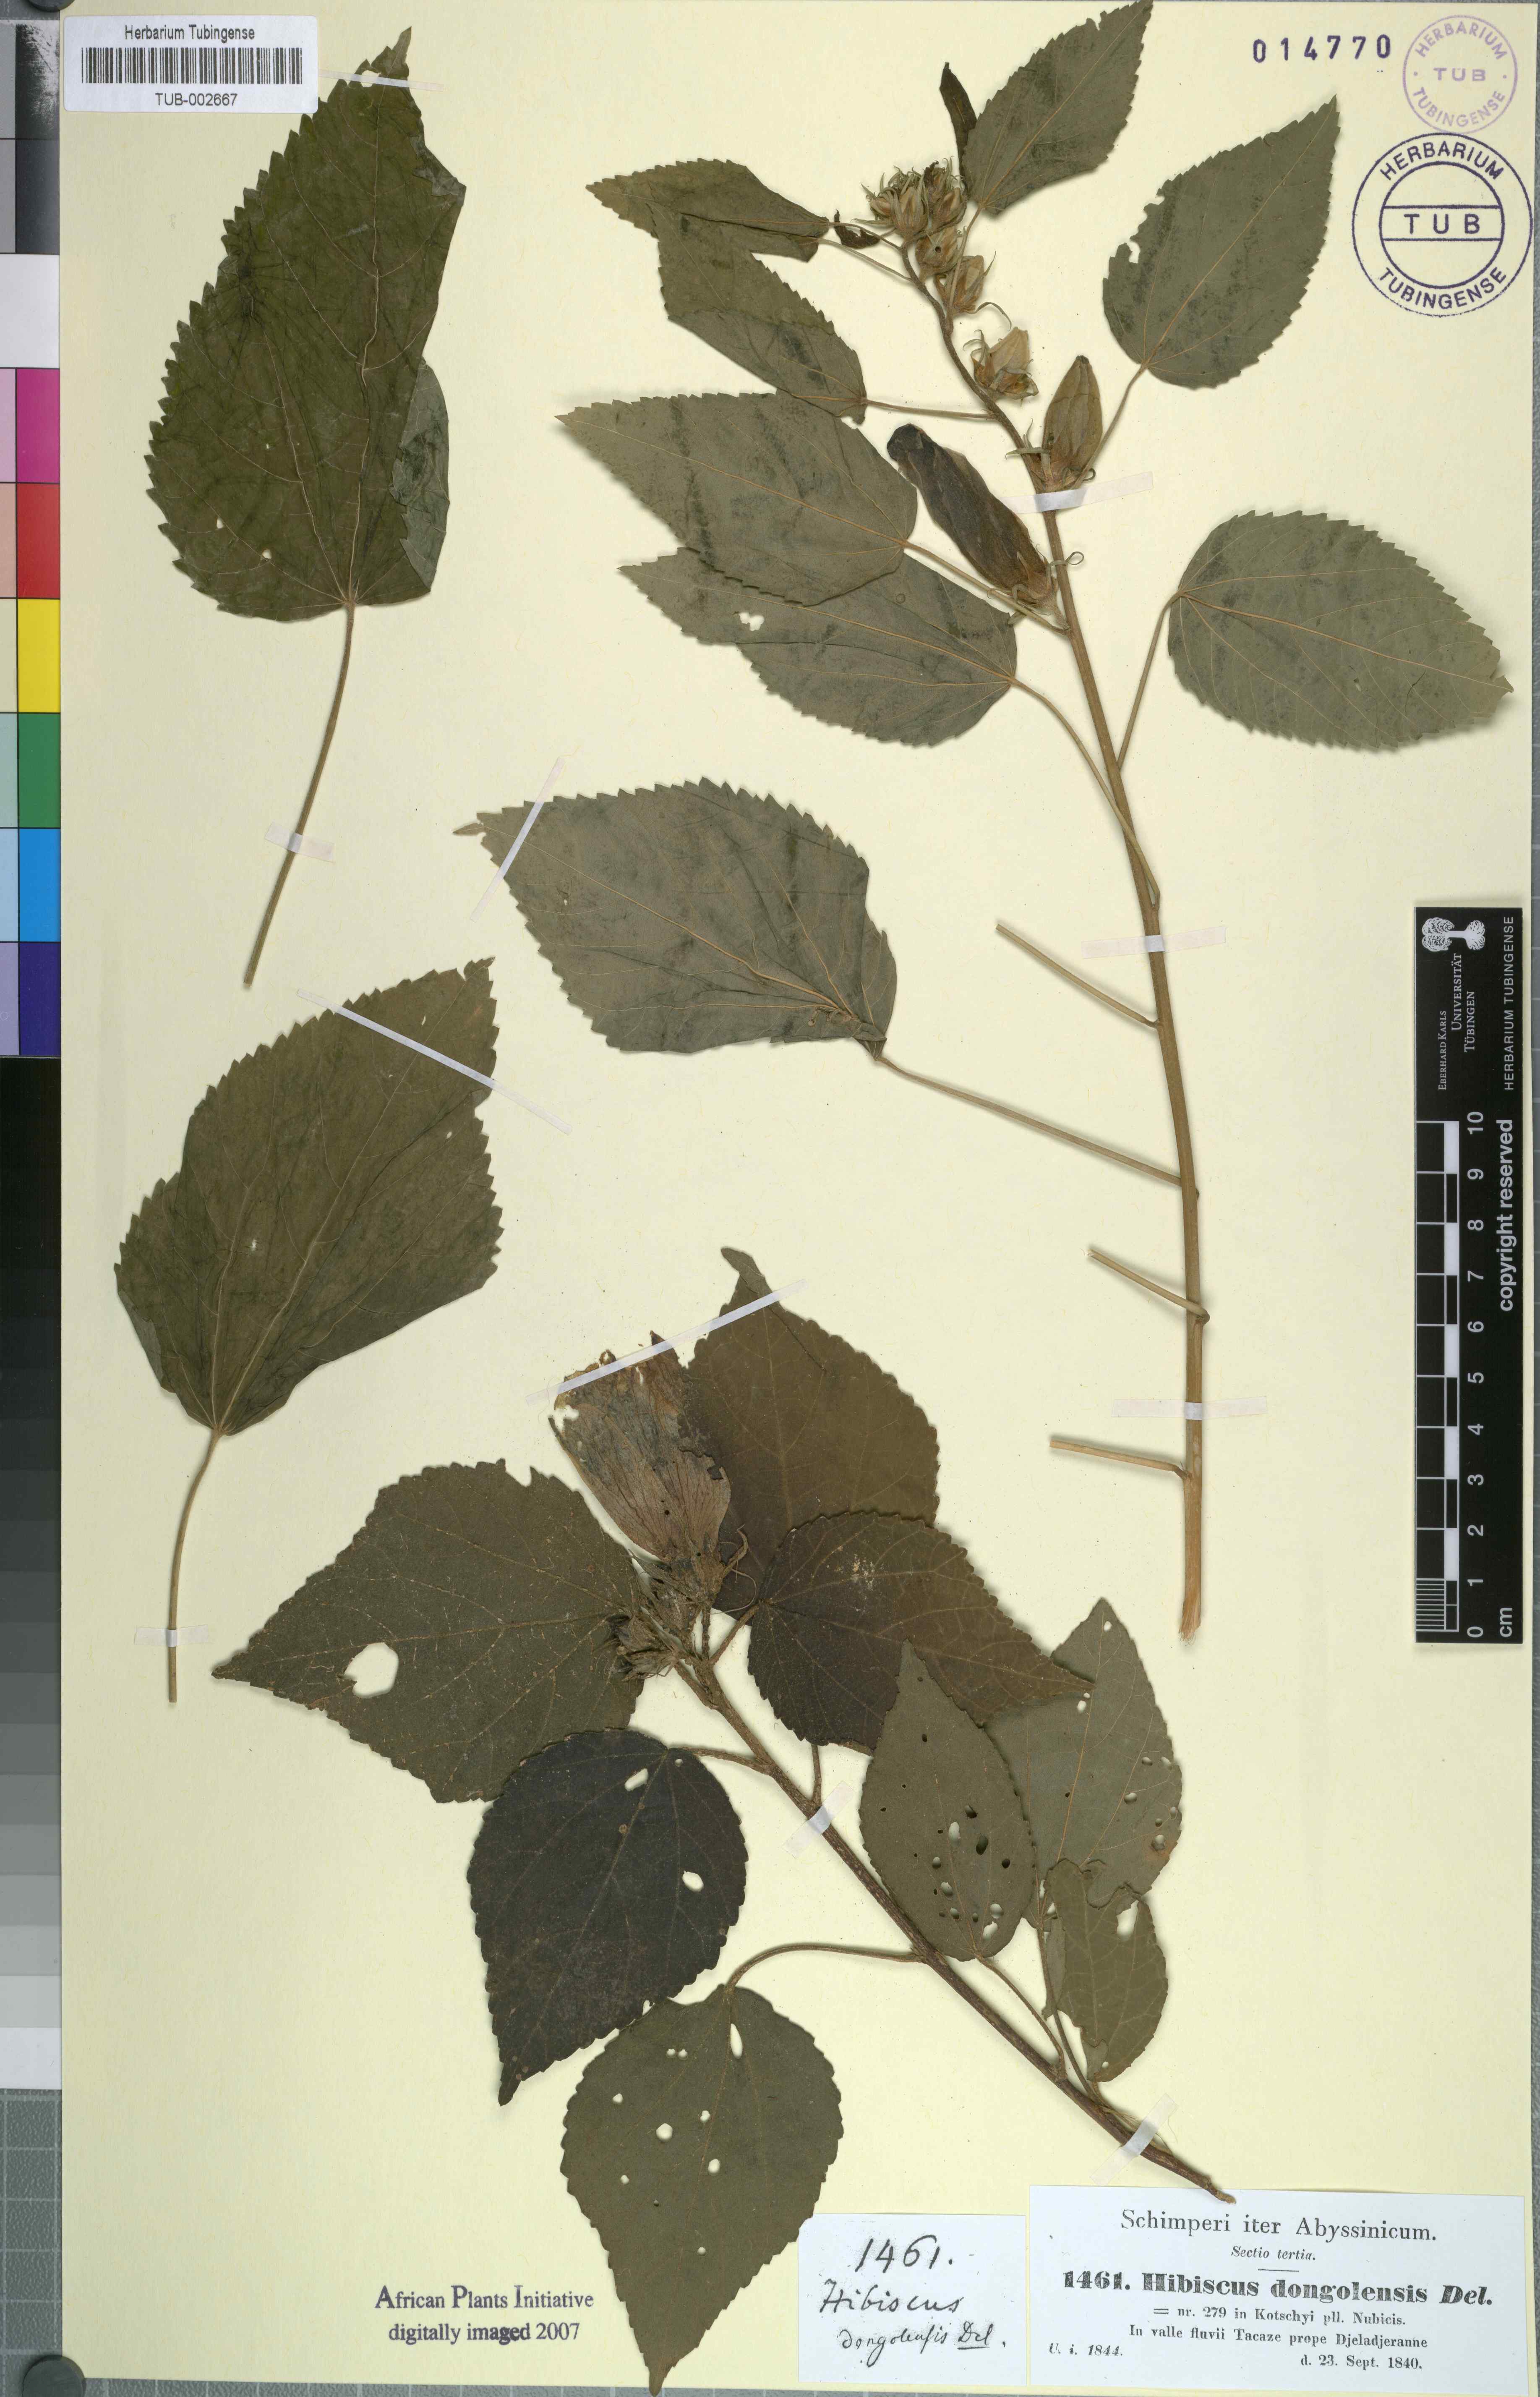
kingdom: Plantae
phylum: Tracheophyta
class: Magnoliopsida
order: Malvales
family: Malvaceae
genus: Hibiscus
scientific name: Hibiscus lunariifolius
